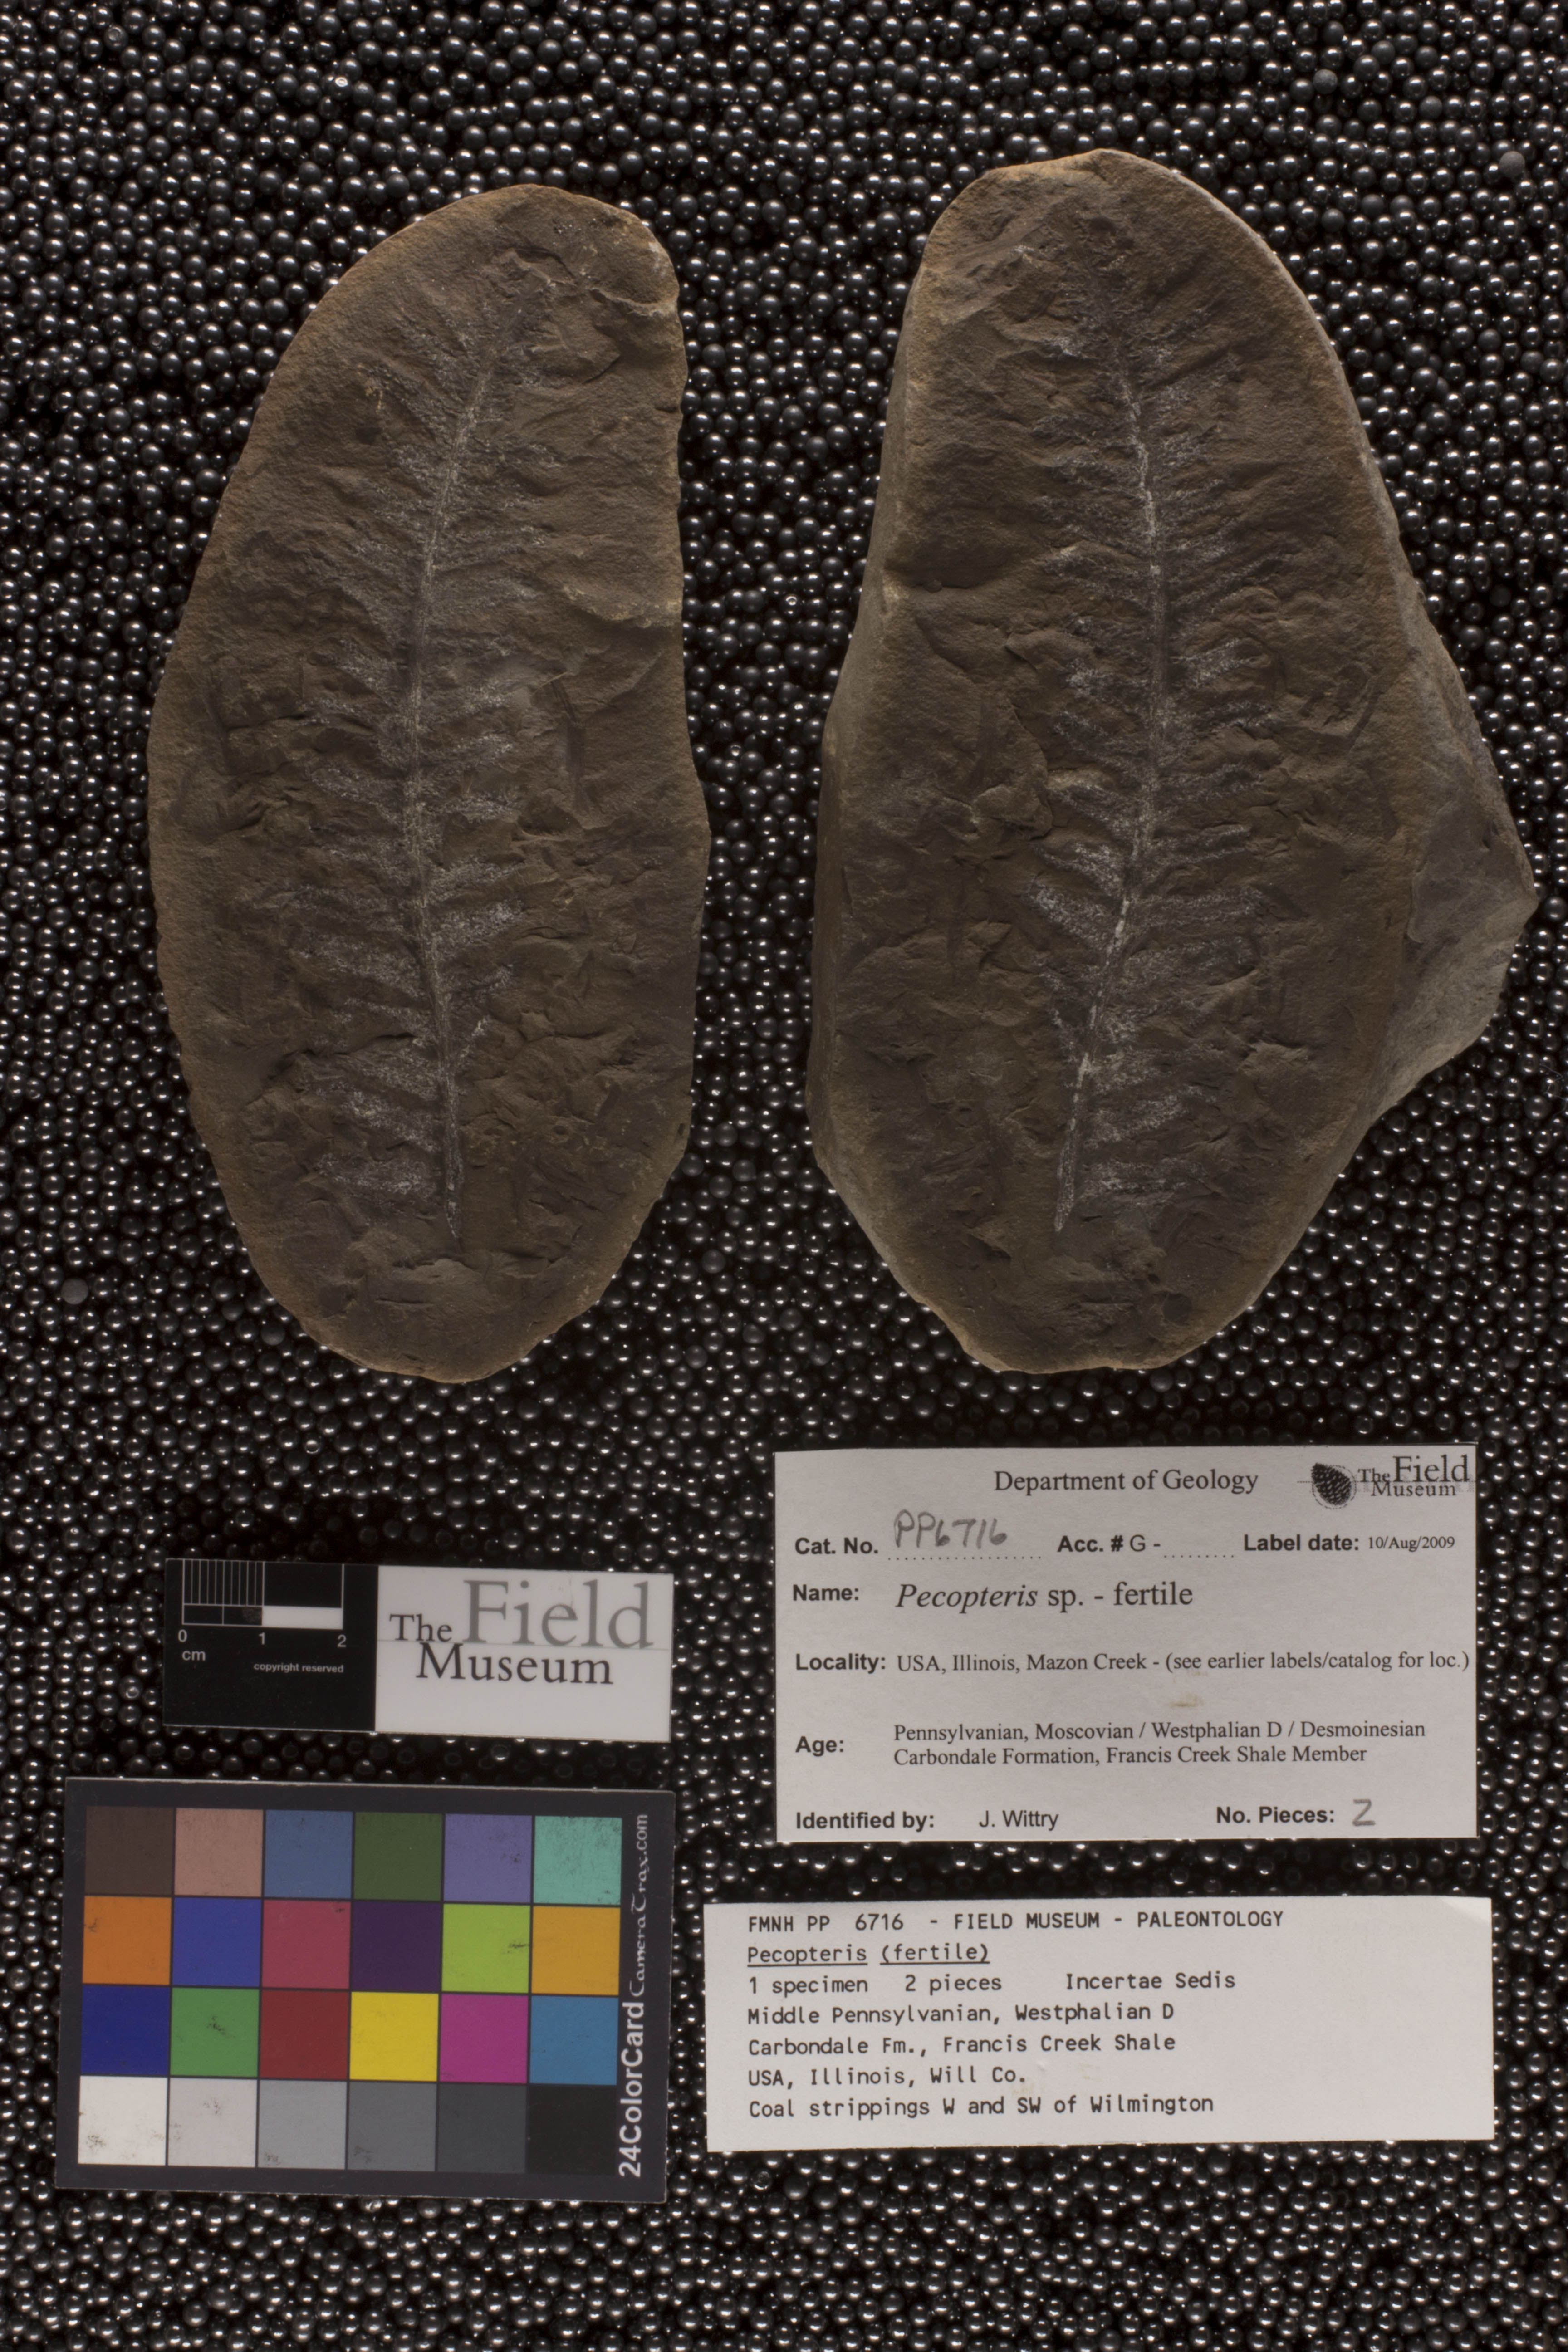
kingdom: Plantae
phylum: Tracheophyta
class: Polypodiopsida
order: Marattiales
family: Asterothecaceae
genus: Pecopteris
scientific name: Pecopteris
